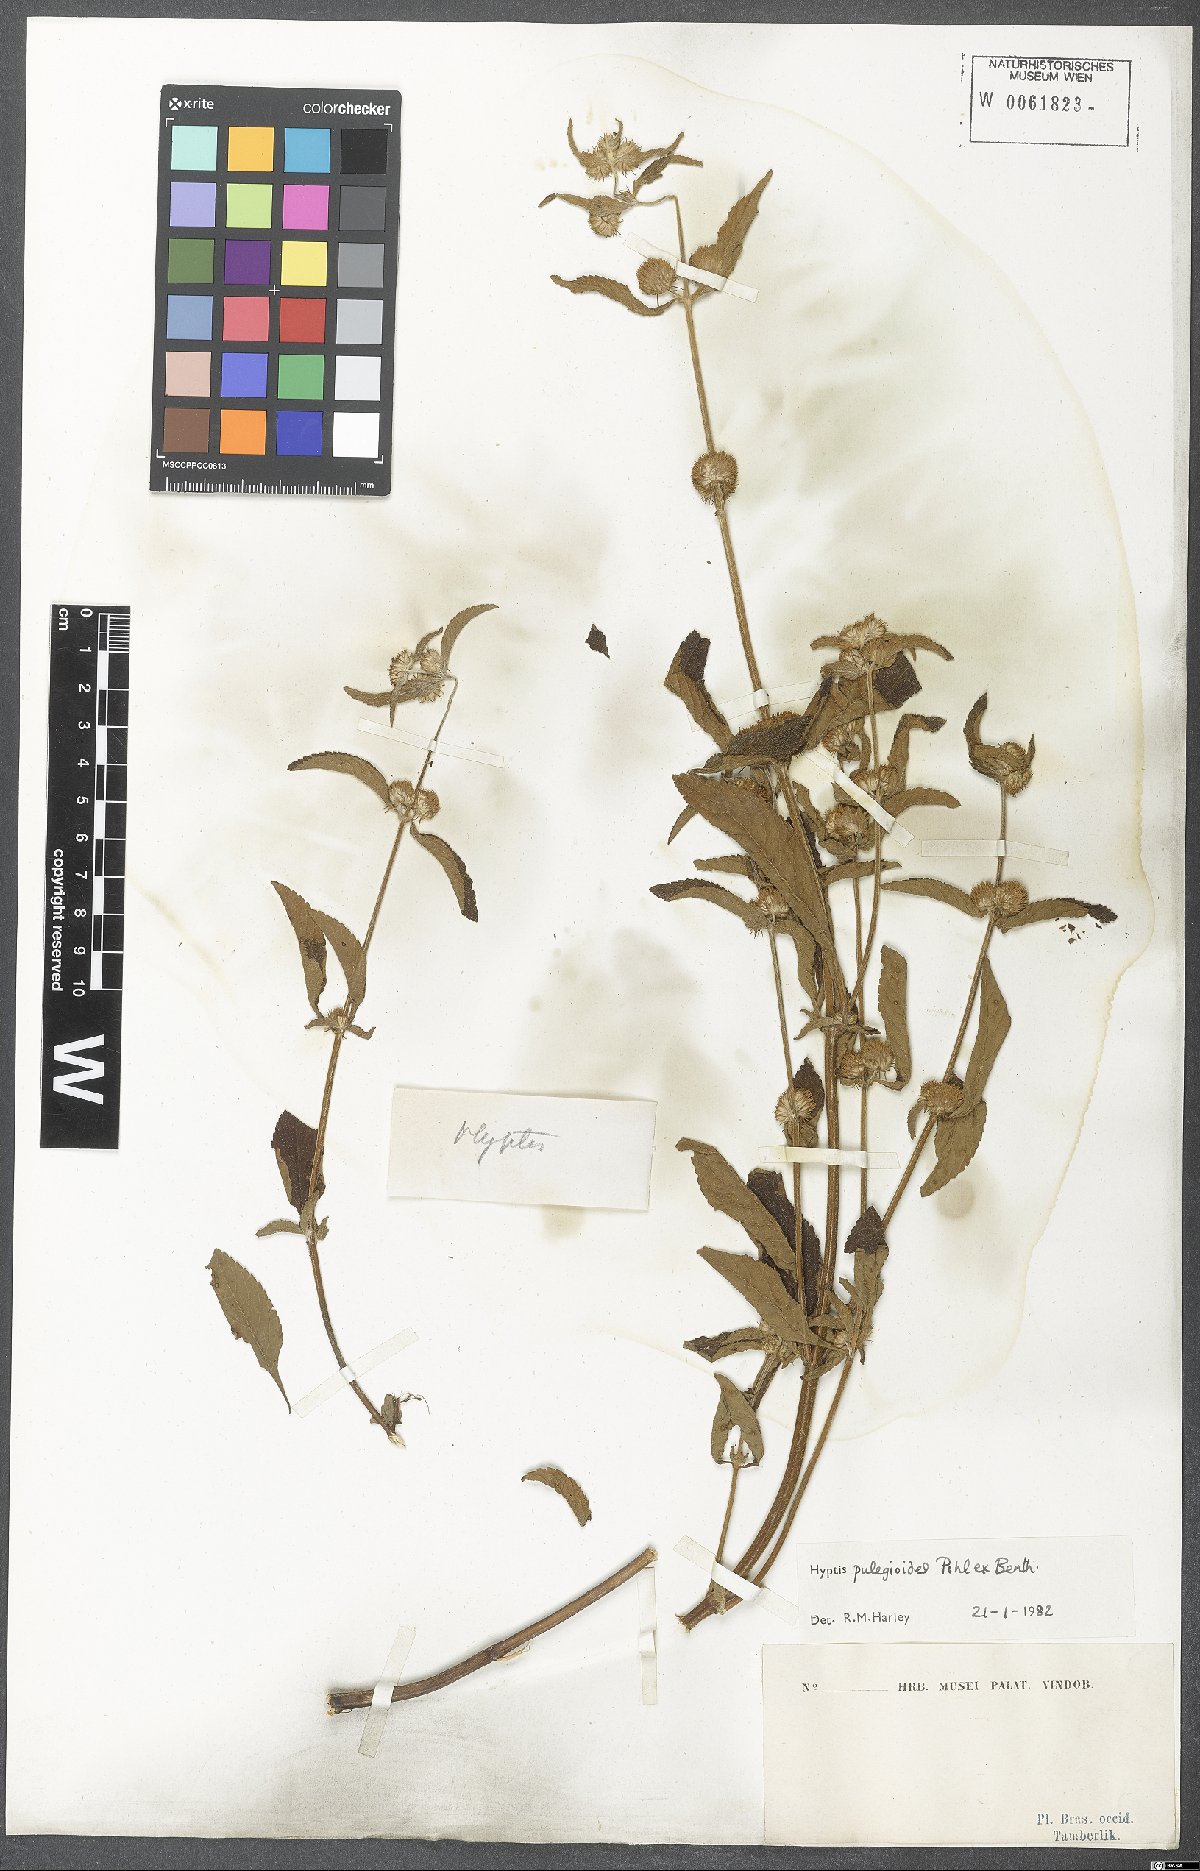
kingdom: Plantae
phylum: Tracheophyta
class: Magnoliopsida
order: Lamiales
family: Lamiaceae
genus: Hyptis
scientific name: Hyptis pulegioides
